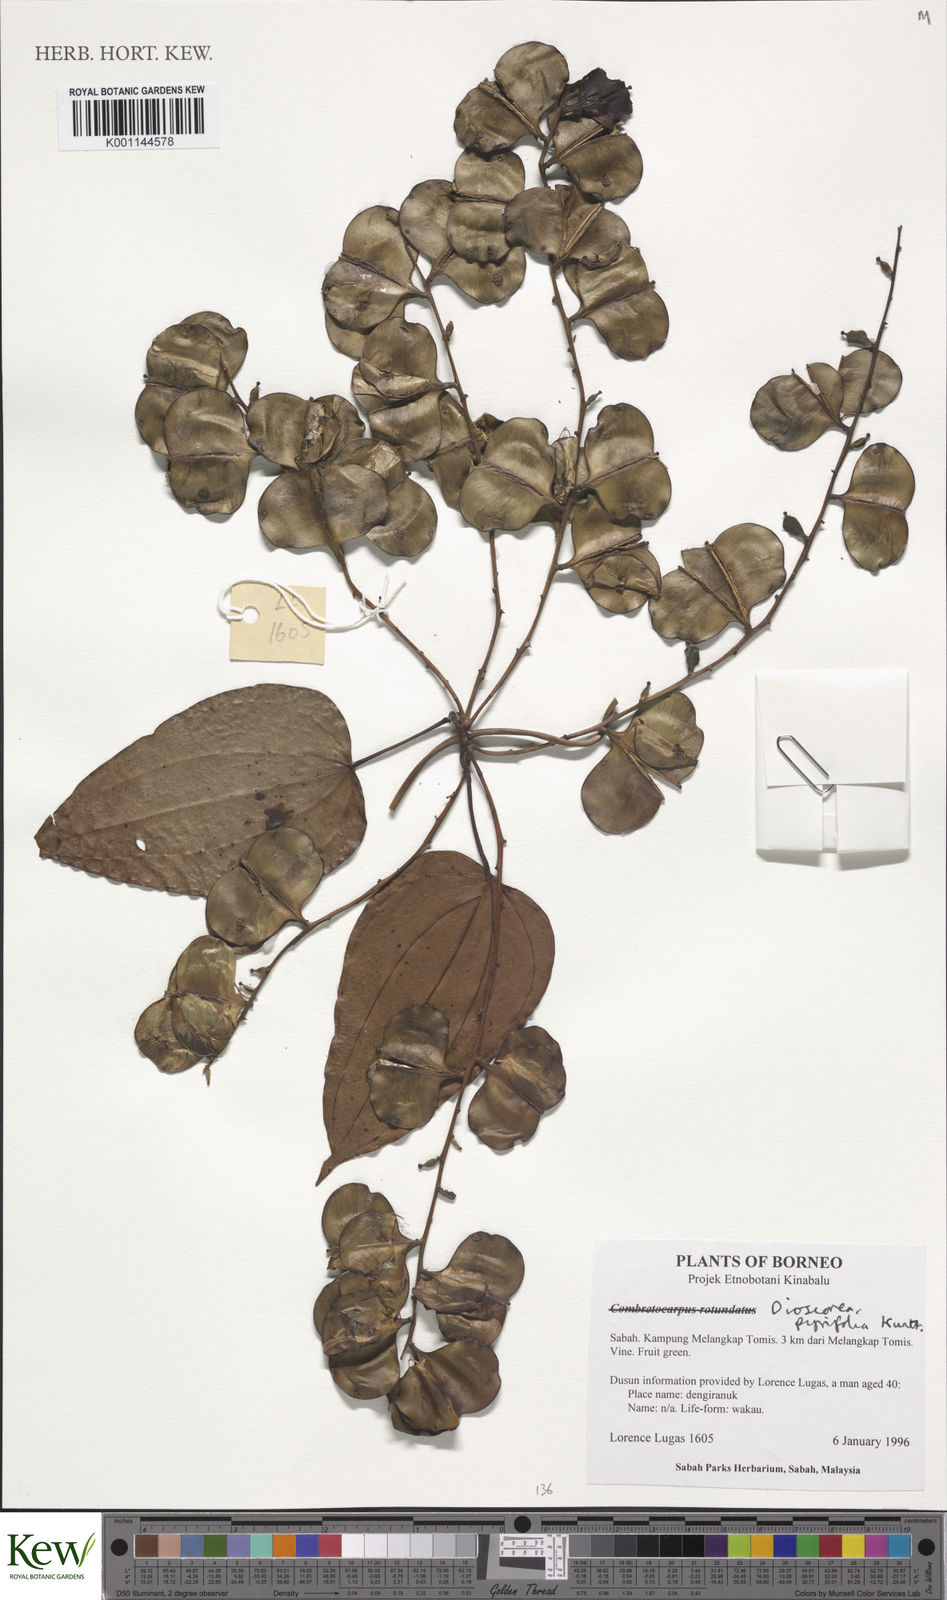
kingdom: Plantae
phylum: Tracheophyta
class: Liliopsida
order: Dioscoreales
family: Dioscoreaceae
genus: Dioscorea
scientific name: Dioscorea pyrifolia
